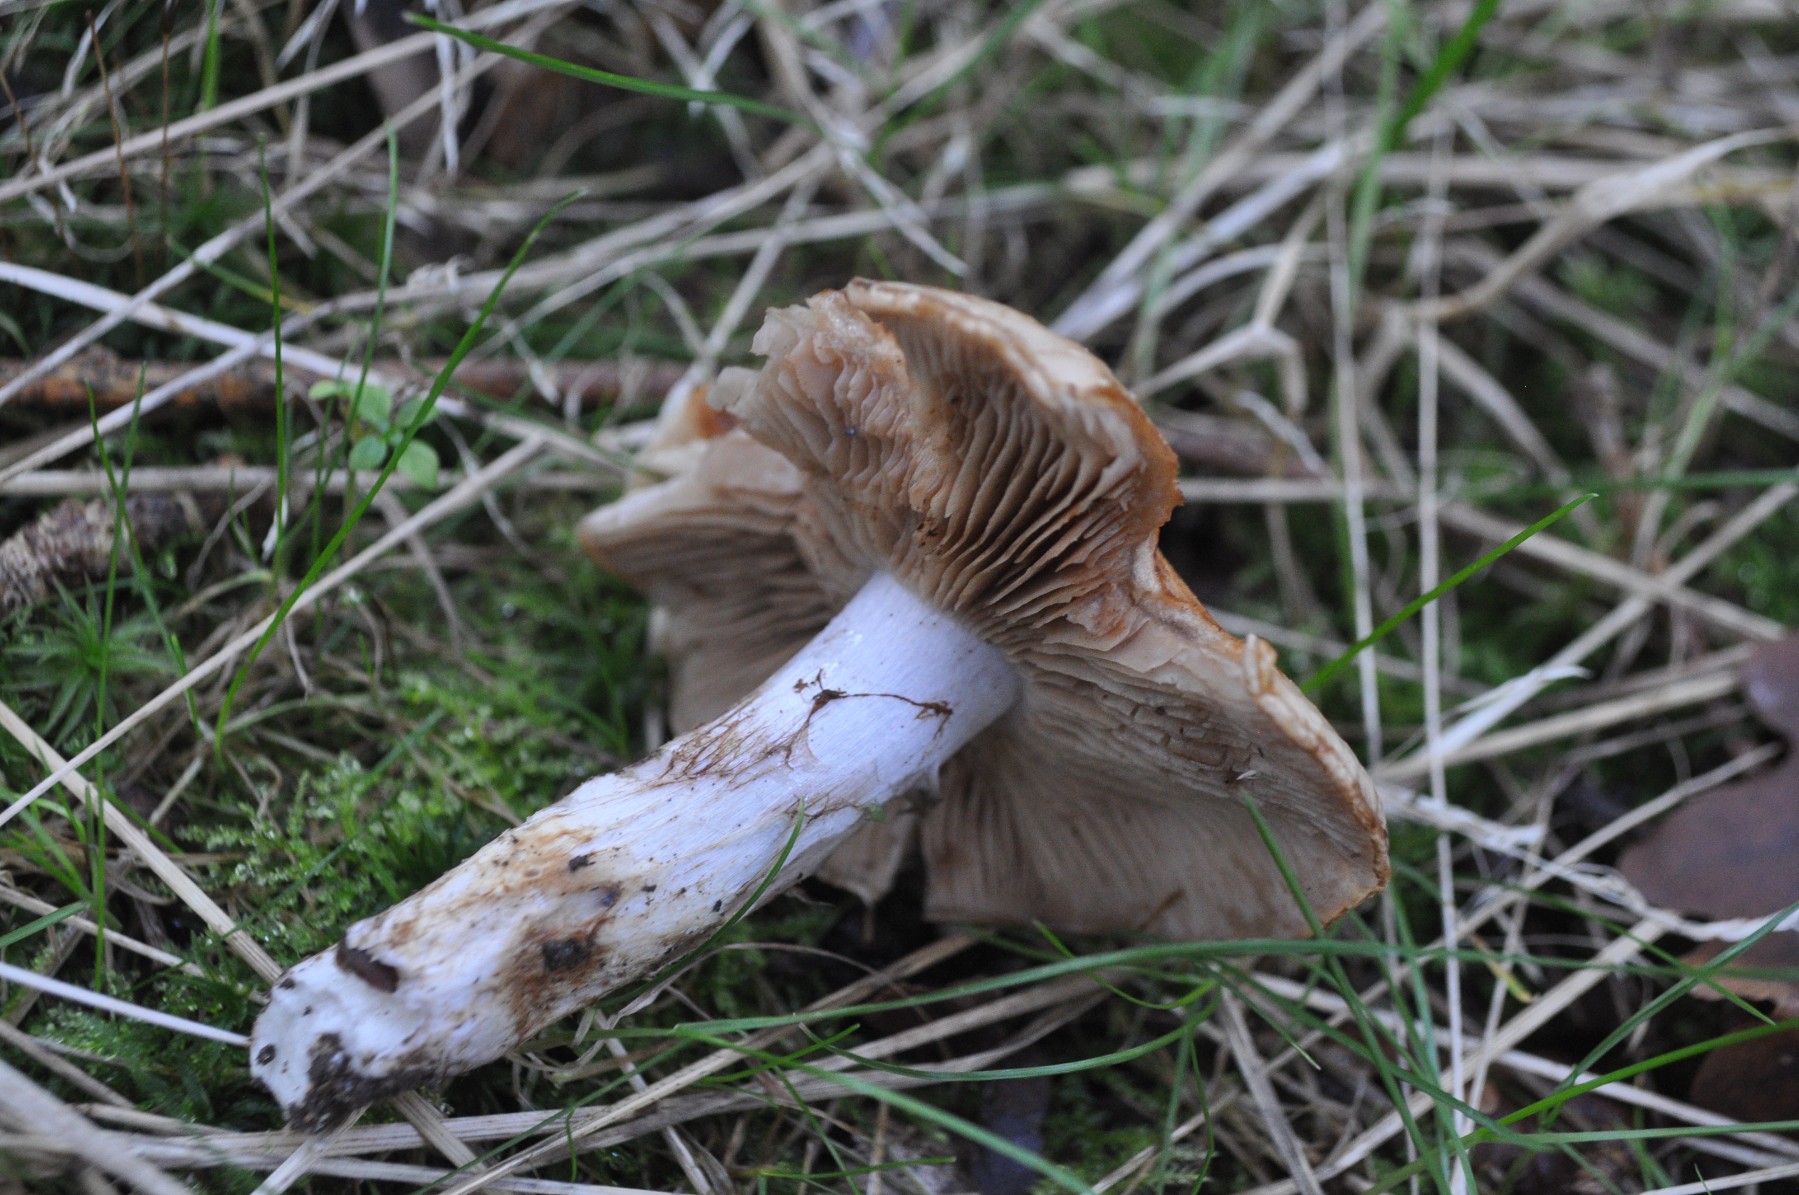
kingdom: Fungi
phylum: Basidiomycota
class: Agaricomycetes
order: Agaricales
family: Cortinariaceae
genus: Cortinarius
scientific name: Cortinarius
